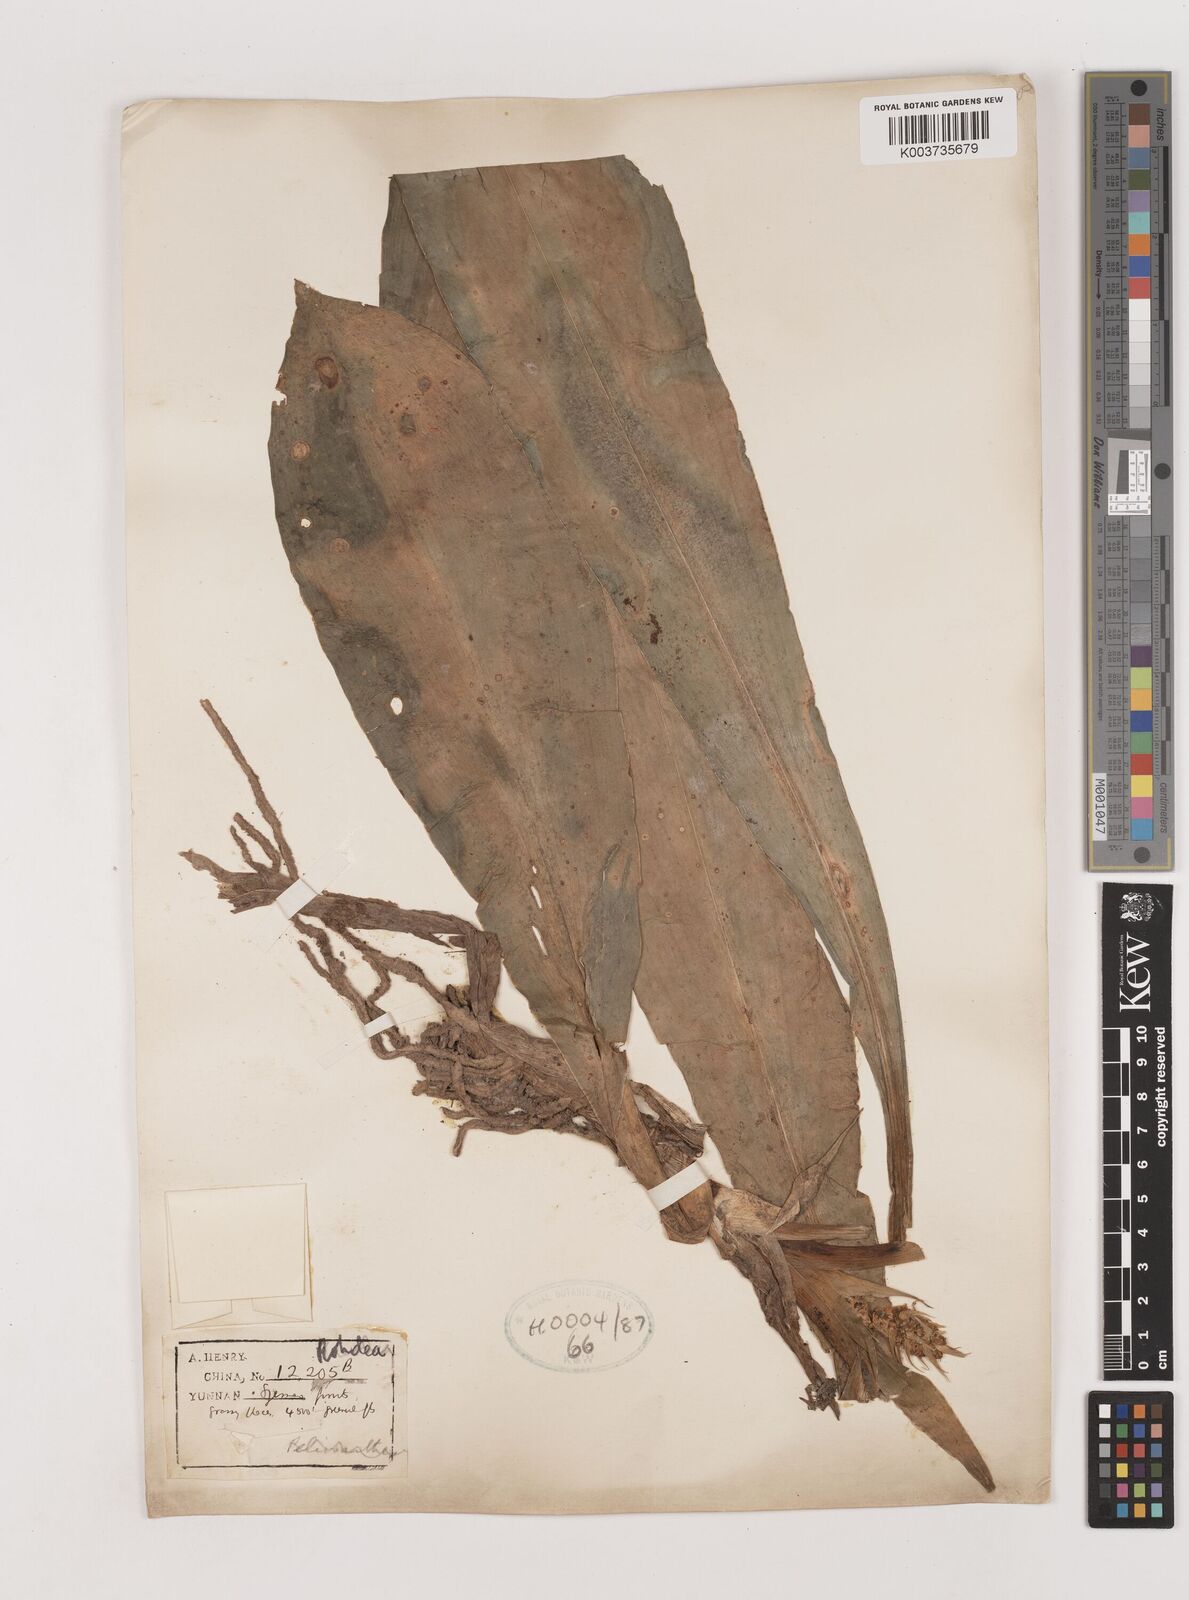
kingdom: Plantae
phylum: Tracheophyta
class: Liliopsida
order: Asparagales
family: Asparagaceae
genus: Rohdea
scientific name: Rohdea fargesii
